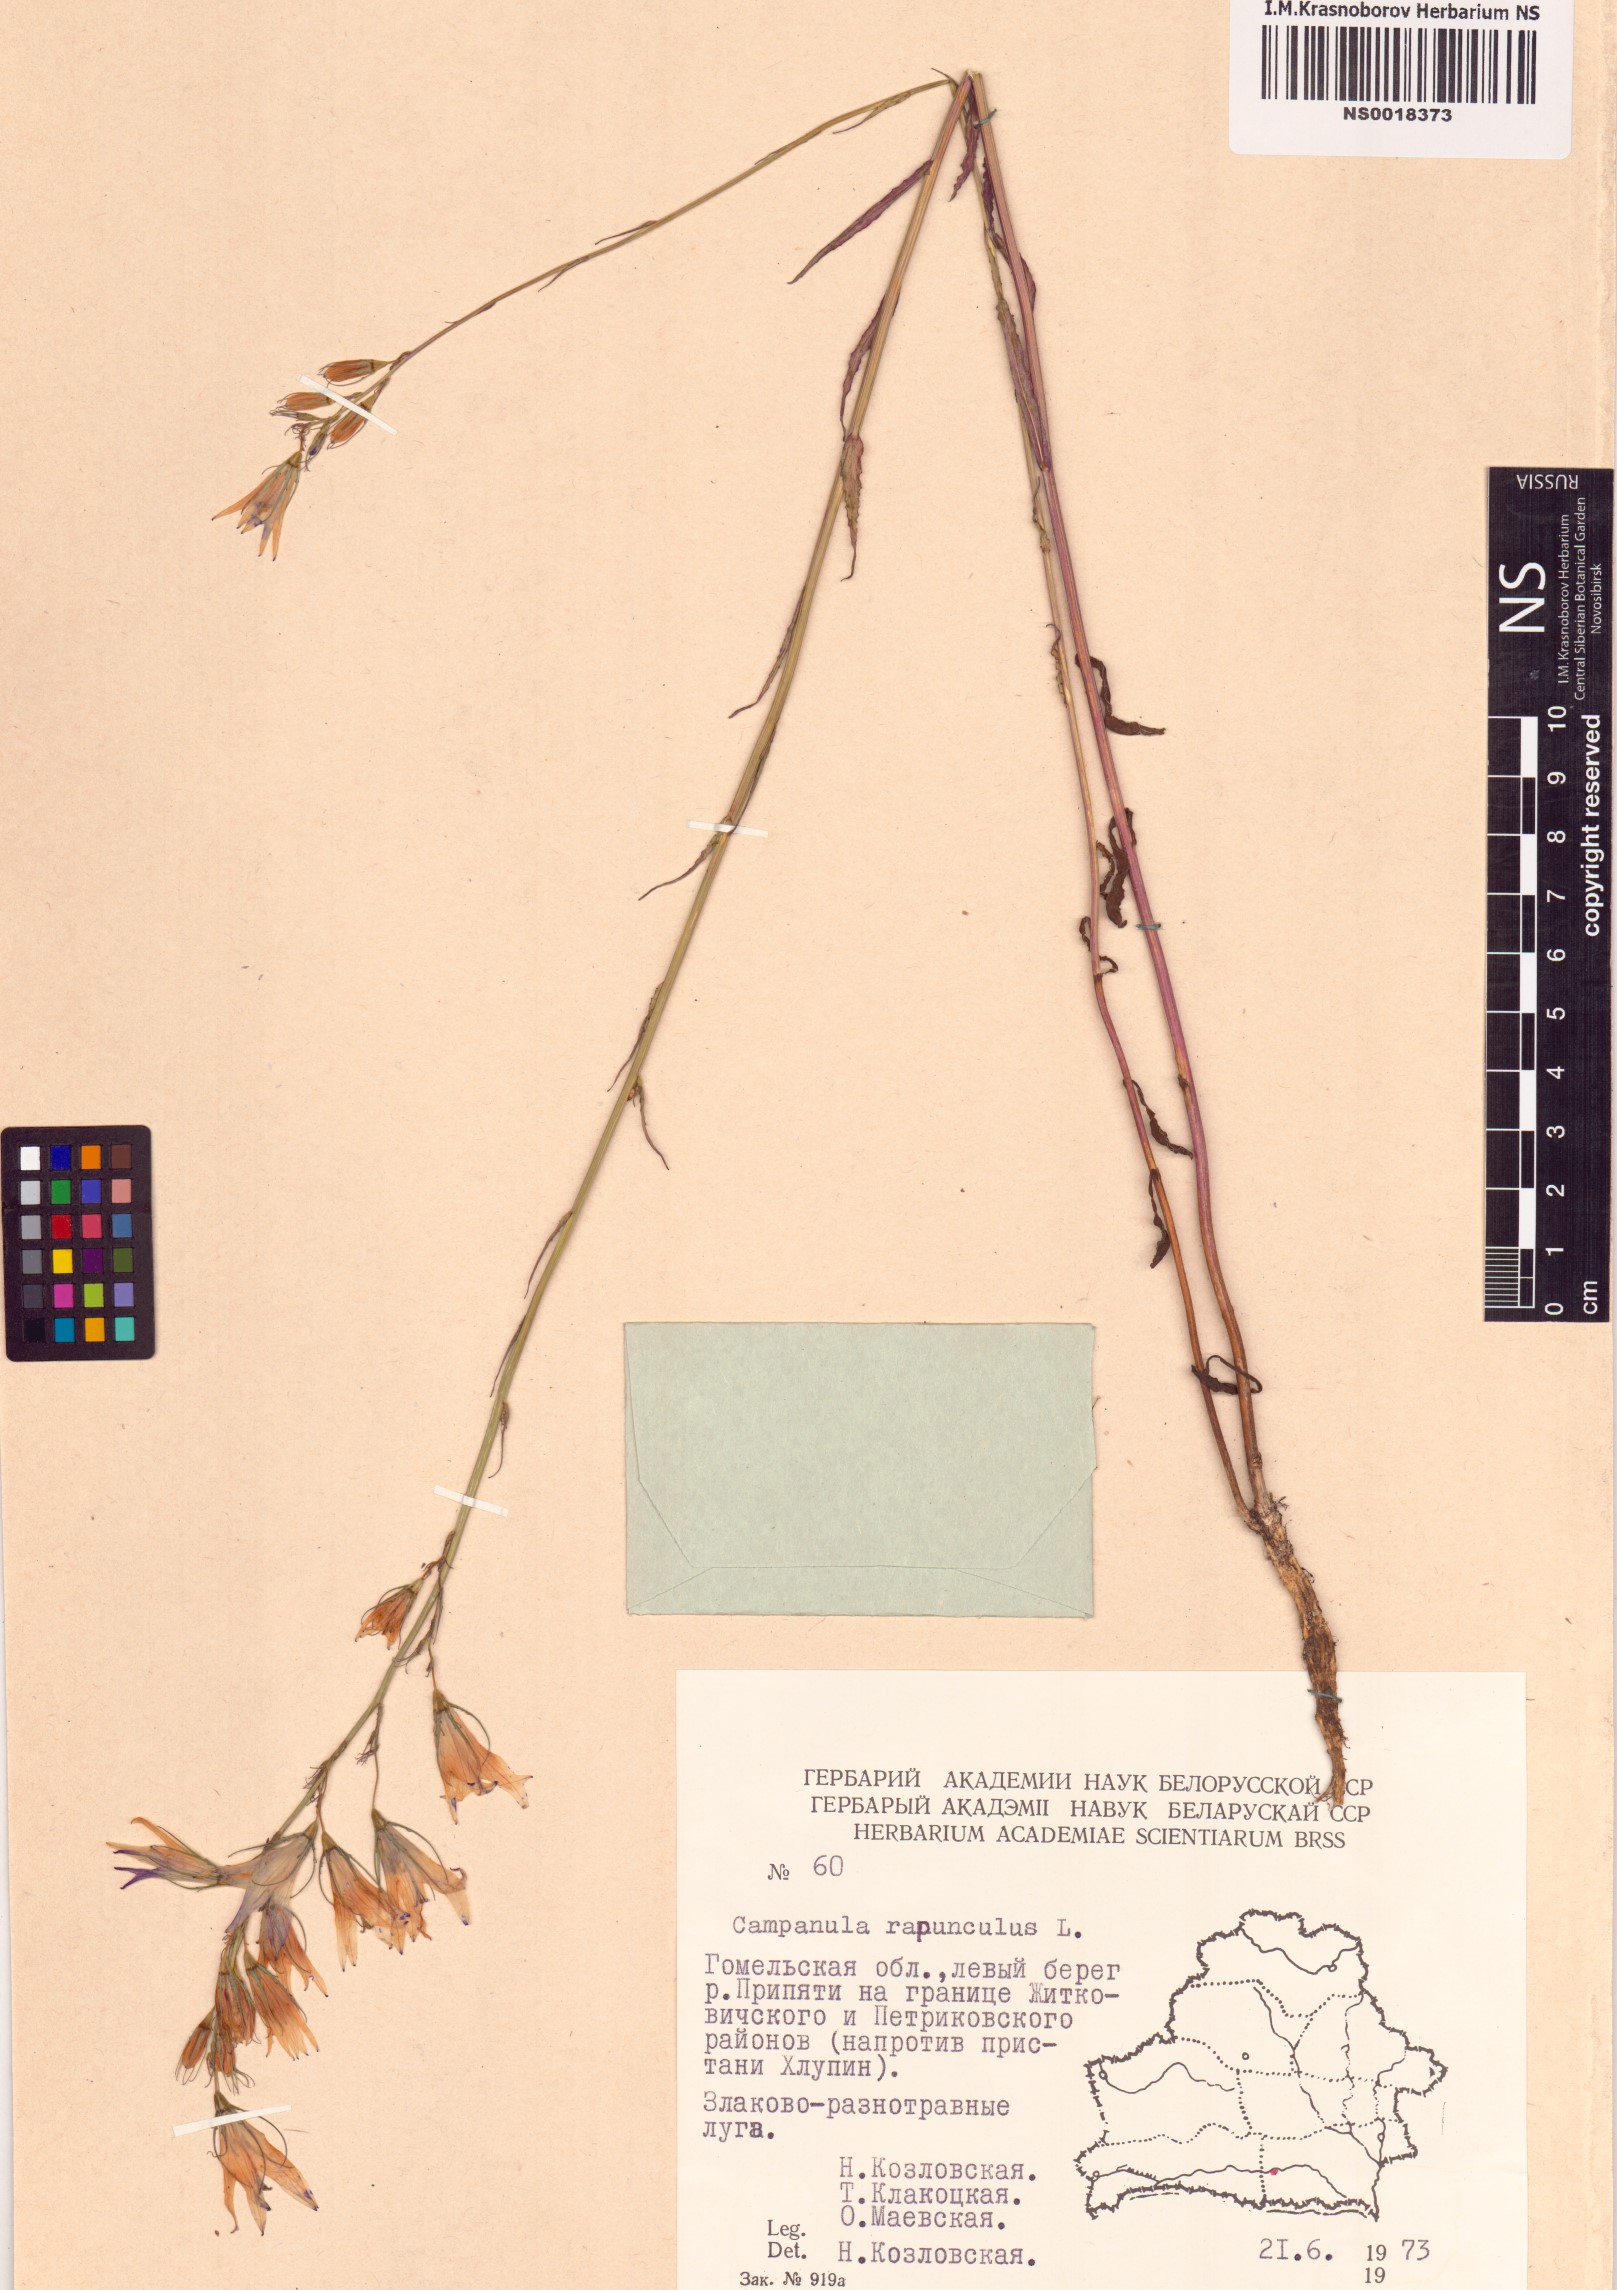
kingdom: Plantae
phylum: Tracheophyta
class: Magnoliopsida
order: Asterales
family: Campanulaceae
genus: Campanula
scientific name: Campanula rapunculoides
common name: Creeping bellflower
